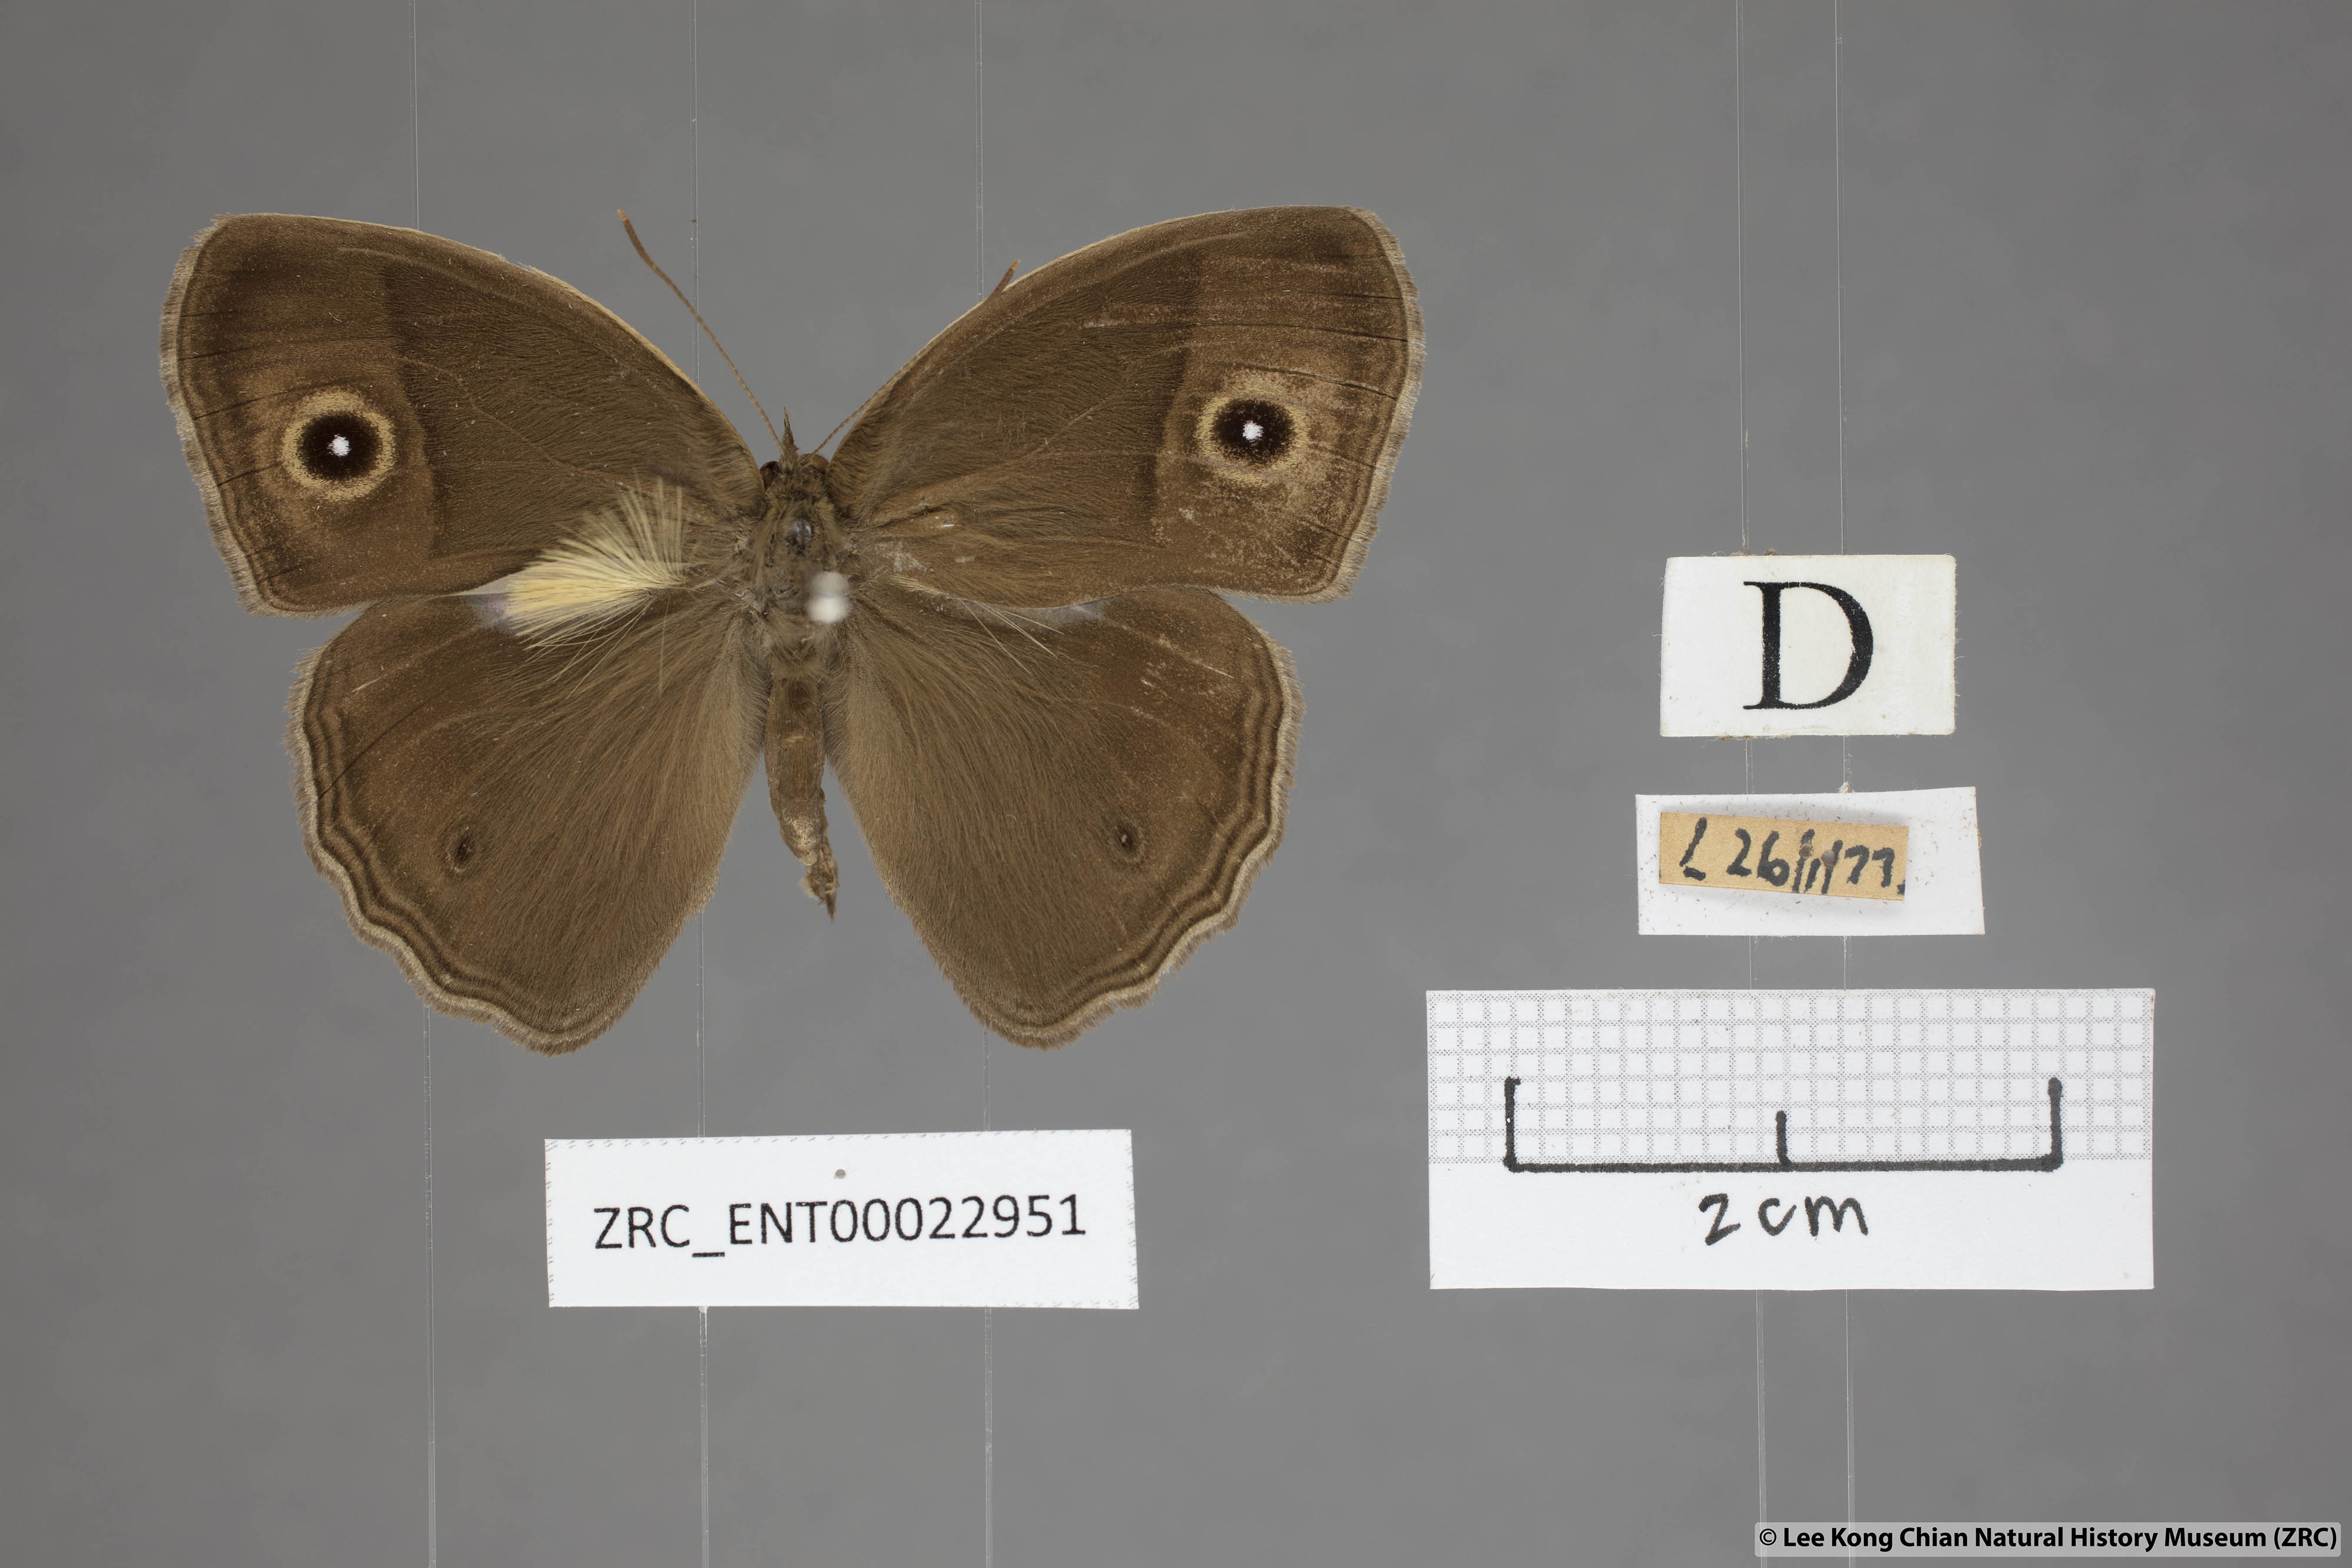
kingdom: Animalia
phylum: Arthropoda
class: Insecta
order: Lepidoptera
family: Nymphalidae
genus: Mycalesis
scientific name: Mycalesis mineus
